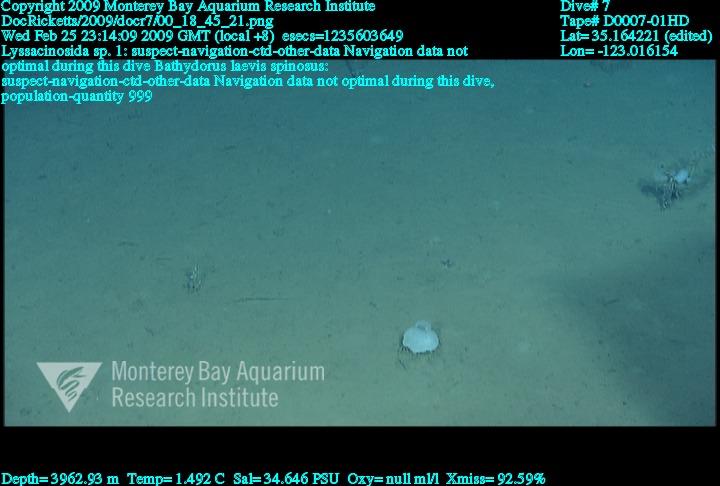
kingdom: Animalia
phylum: Porifera
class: Hexactinellida
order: Lyssacinosida
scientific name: Lyssacinosida
